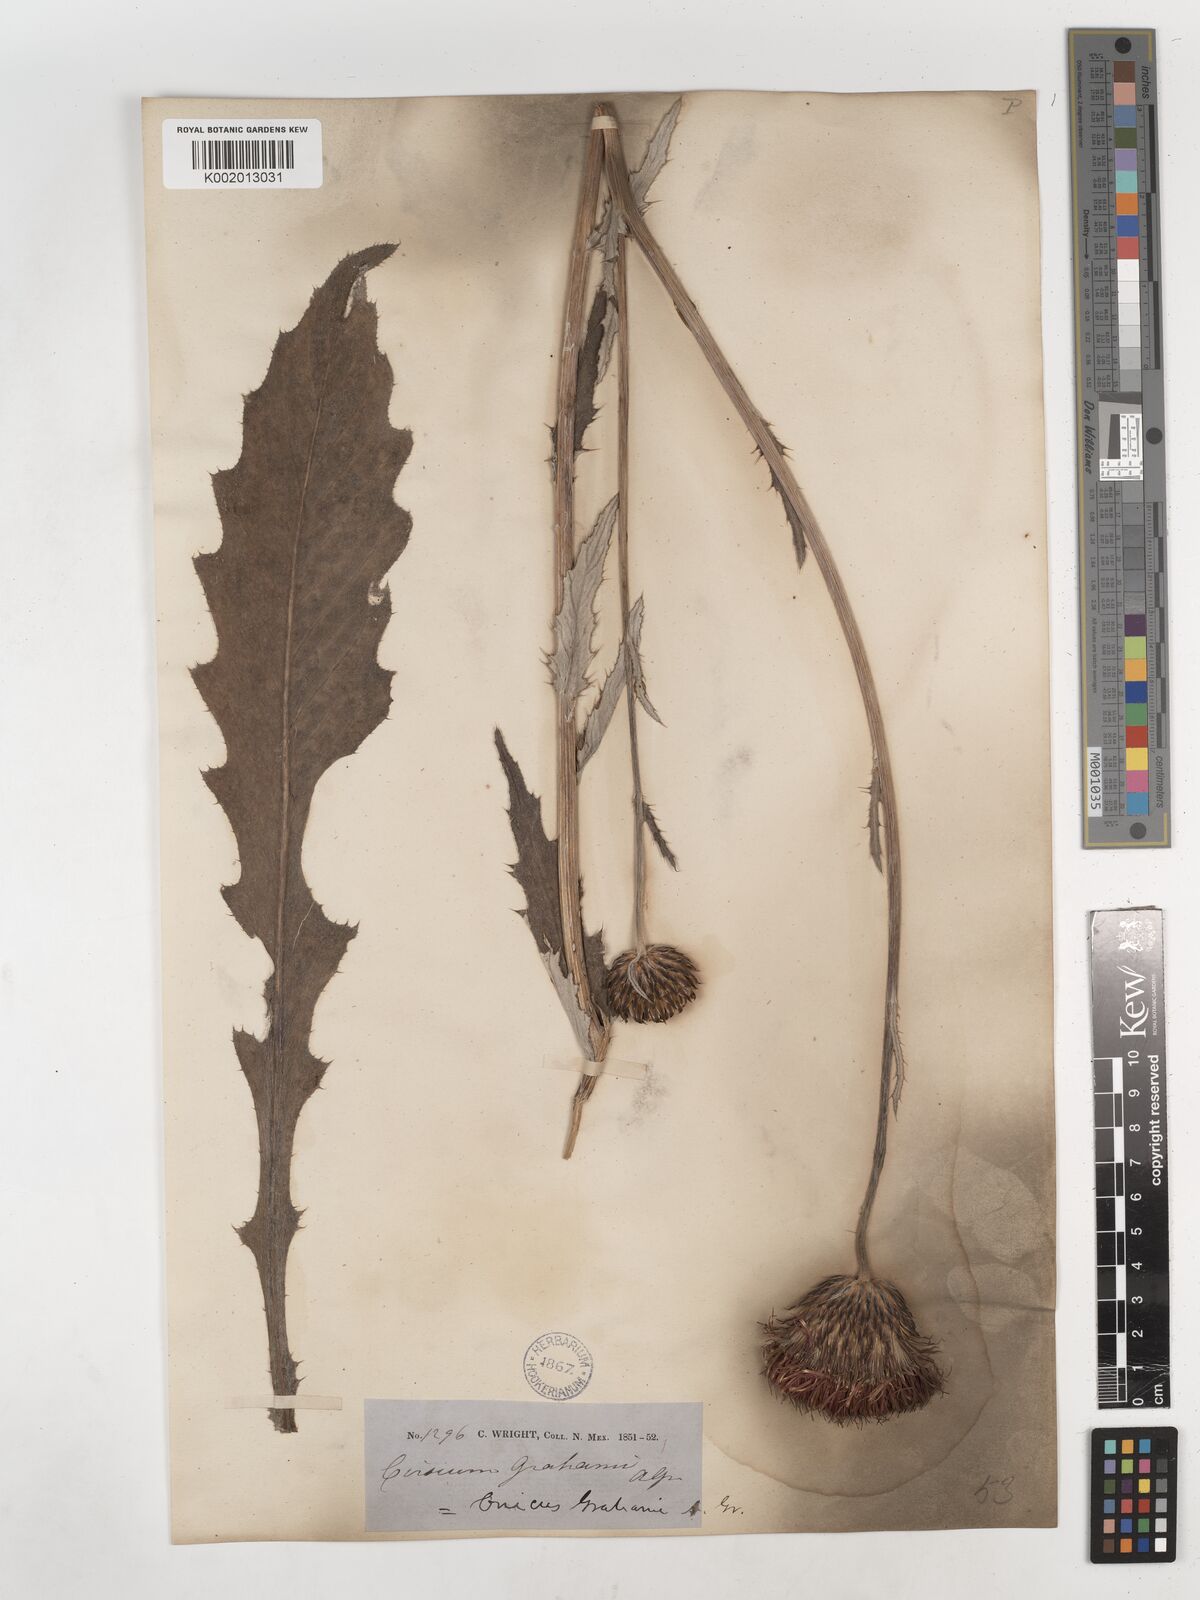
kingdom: Plantae
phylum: Tracheophyta
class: Magnoliopsida
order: Asterales
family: Asteraceae
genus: Cirsium
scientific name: Cirsium grahamii
